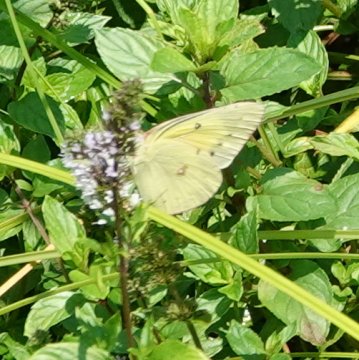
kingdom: Animalia
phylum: Arthropoda
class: Insecta
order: Lepidoptera
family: Pieridae
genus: Phoebis
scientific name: Phoebis sennae
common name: Cloudless Sulphur
